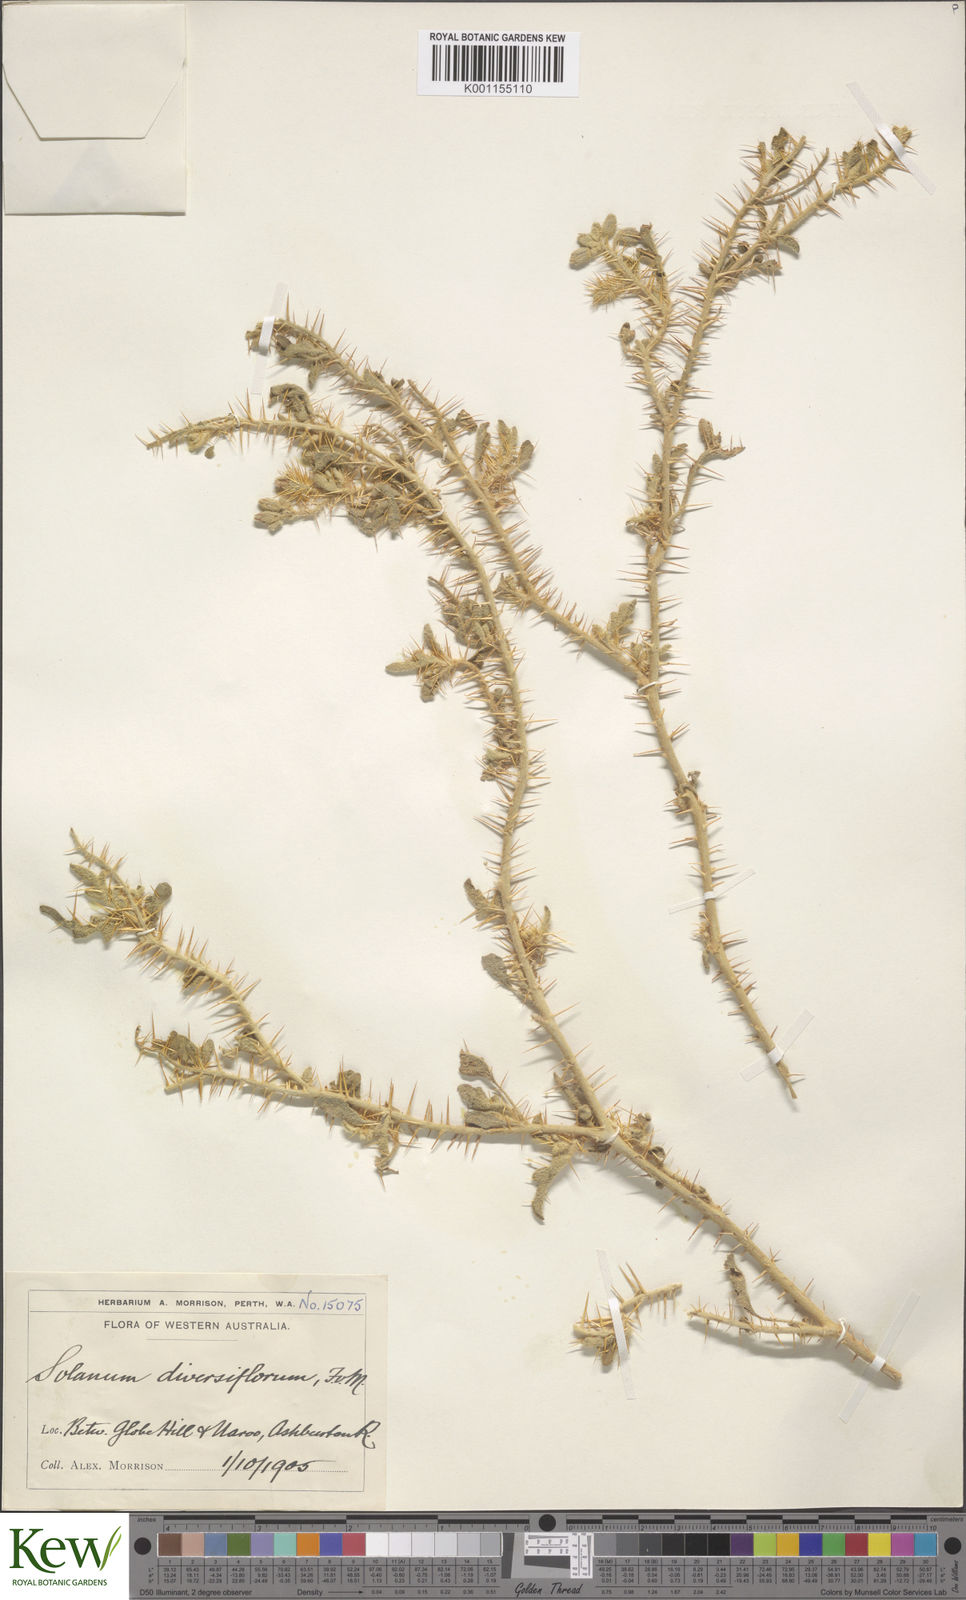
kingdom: Plantae
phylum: Tracheophyta
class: Magnoliopsida
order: Solanales
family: Solanaceae
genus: Solanum
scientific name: Solanum diversiflorum
